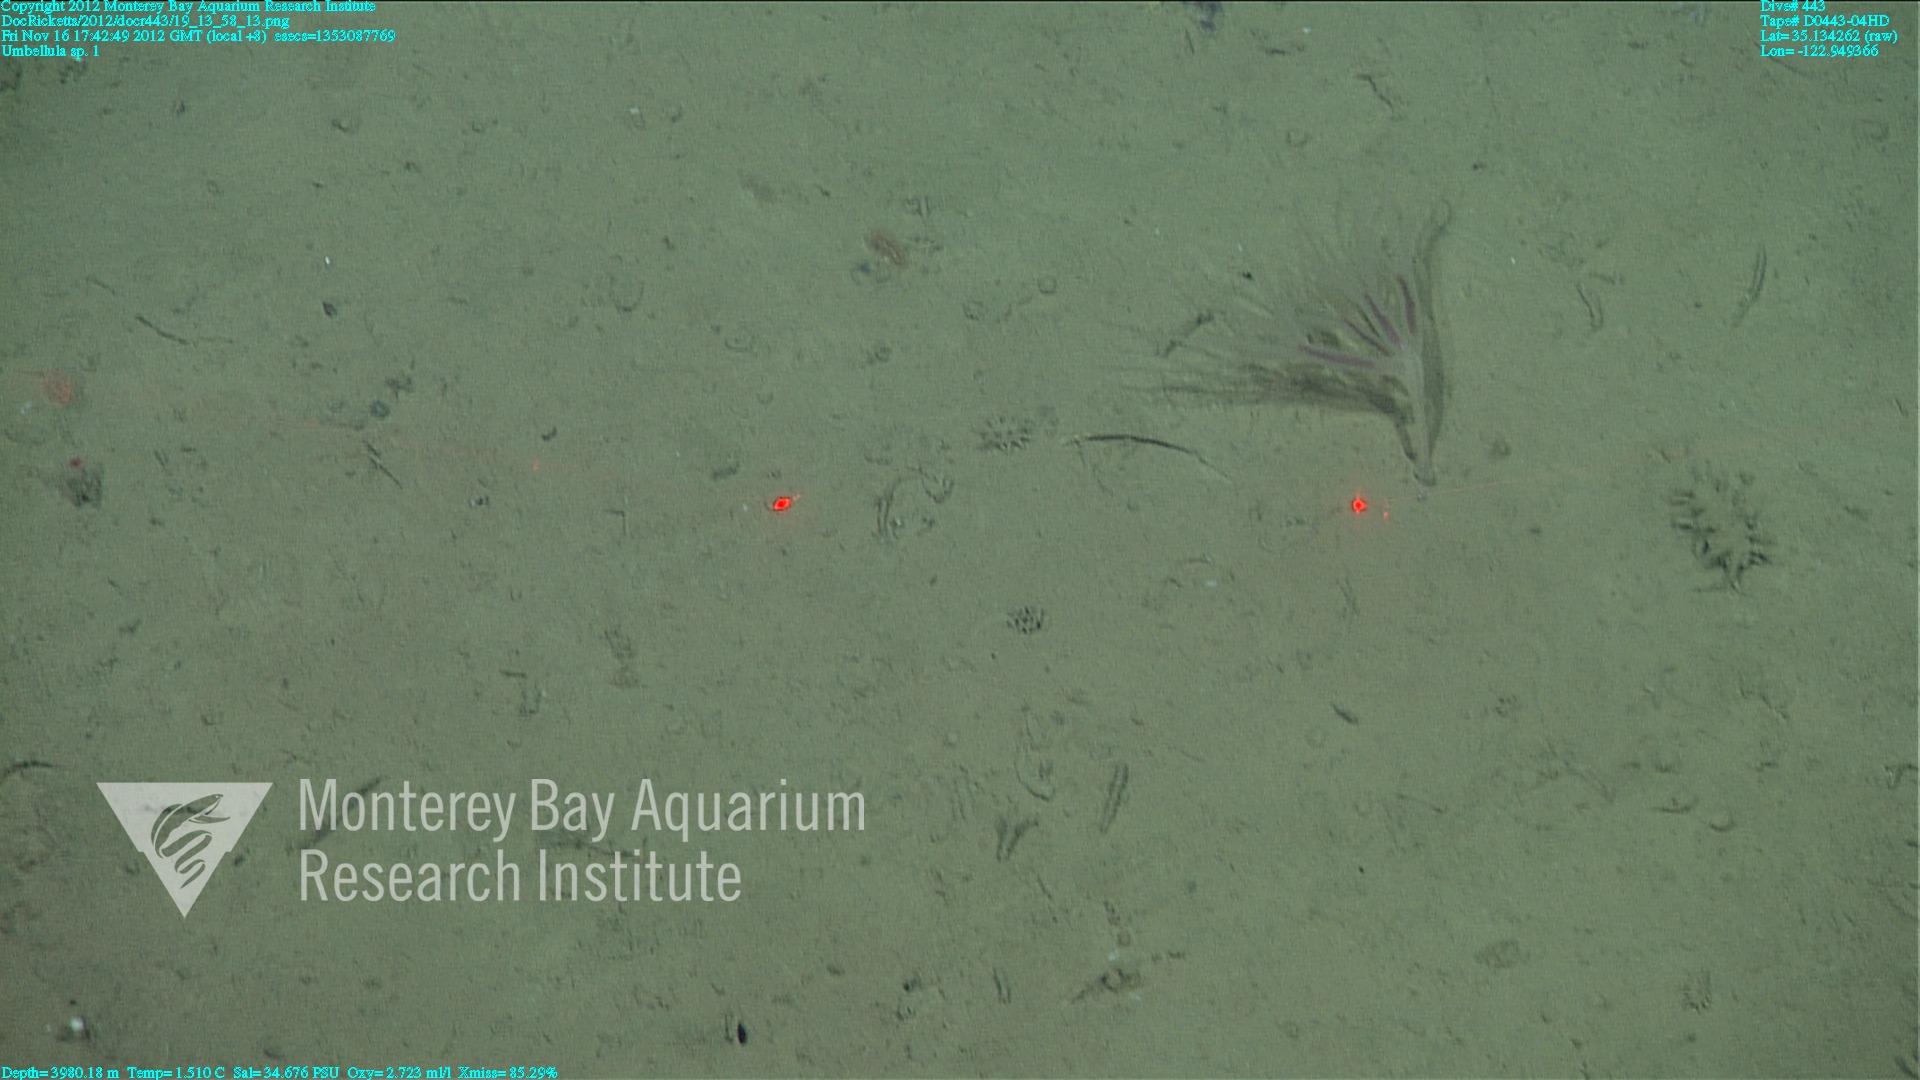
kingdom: Animalia
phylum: Cnidaria
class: Anthozoa
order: Scleralcyonacea
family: Umbellulidae
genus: Umbellula
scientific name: Umbellula
